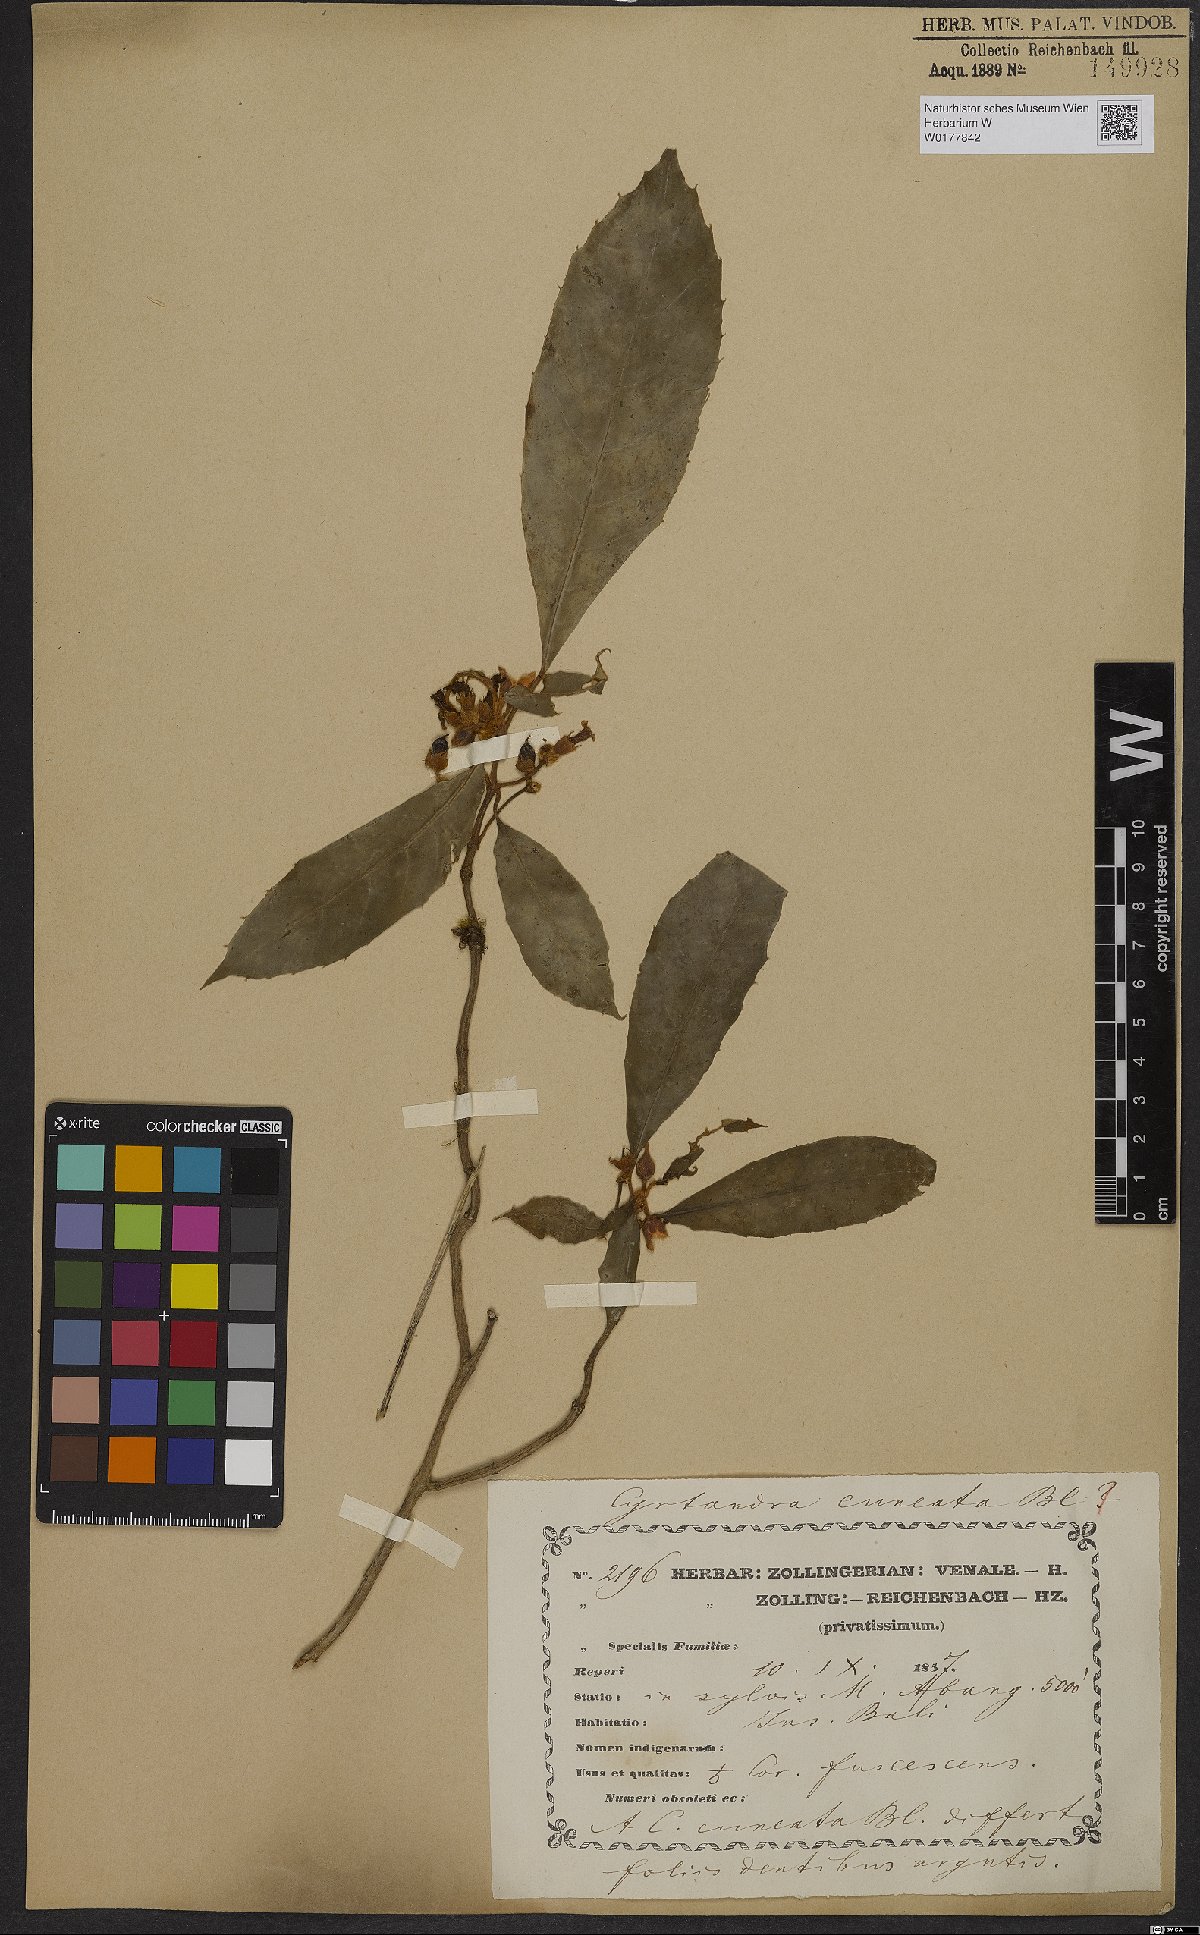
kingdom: Plantae
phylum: Tracheophyta
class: Magnoliopsida
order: Lamiales
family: Gesneriaceae
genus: Cyrtandra
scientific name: Cyrtandra cuneata
